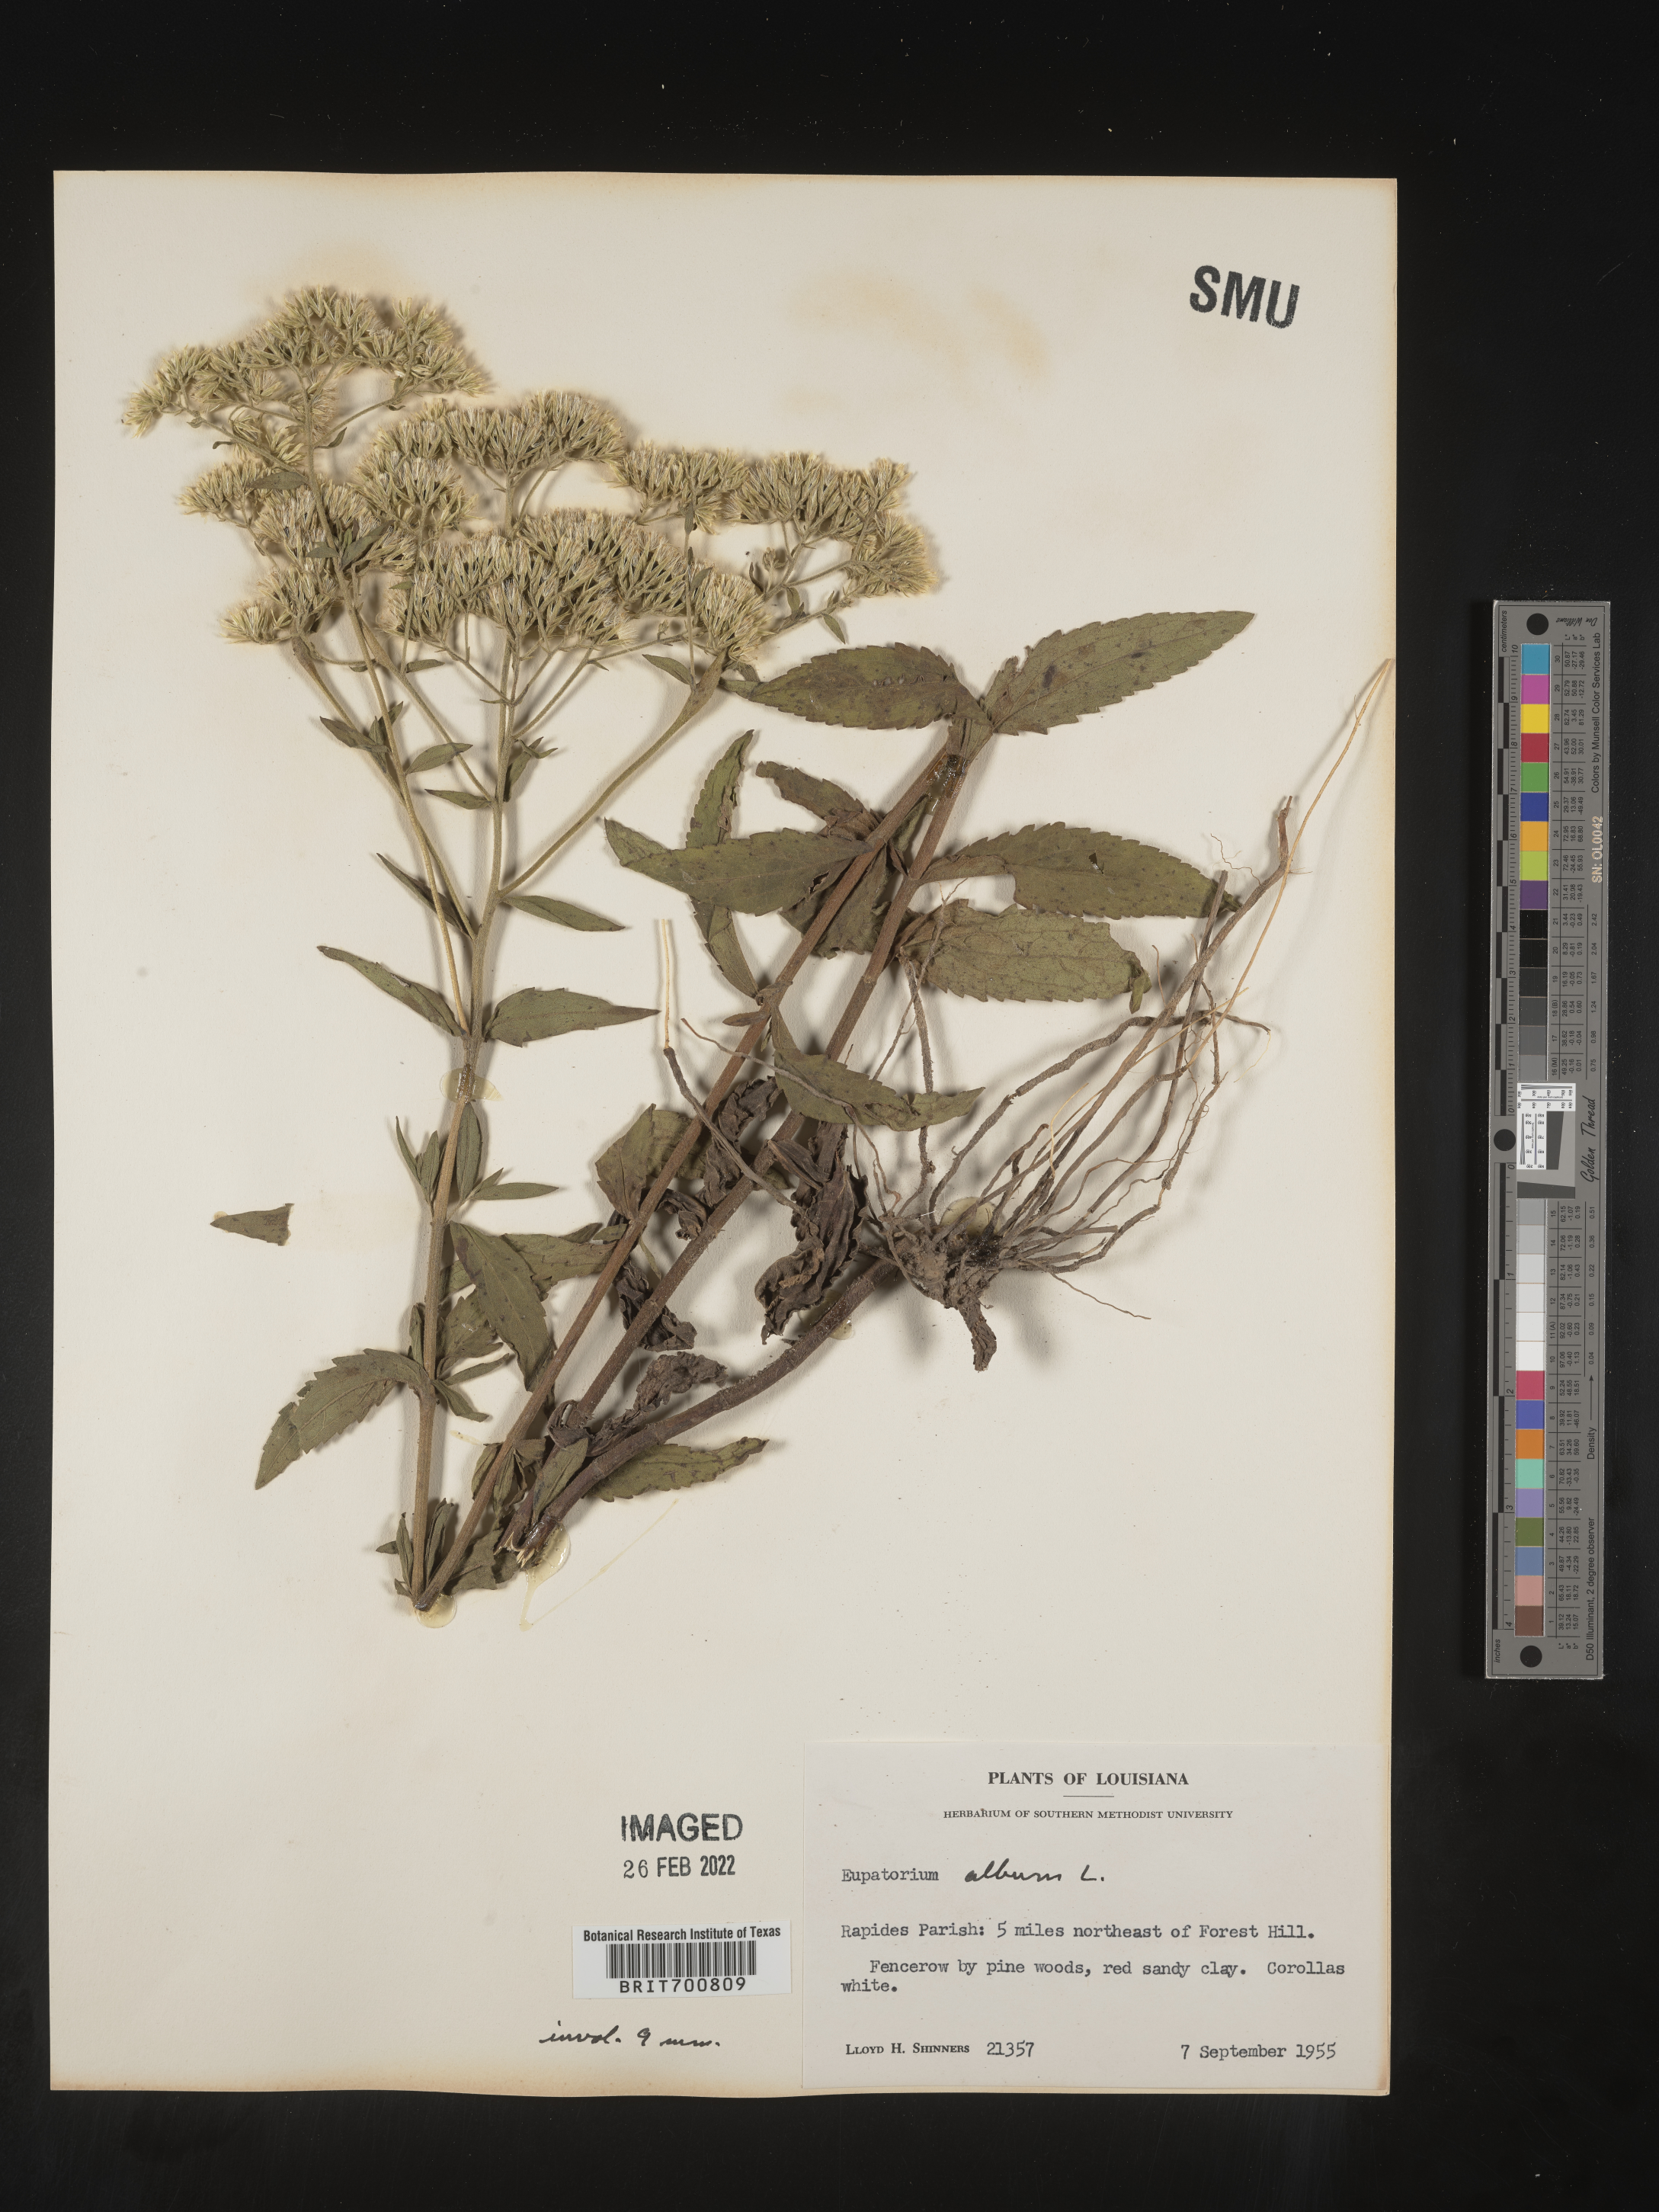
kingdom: Plantae
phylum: Tracheophyta
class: Magnoliopsida
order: Asterales
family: Asteraceae
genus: Eupatorium
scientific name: Eupatorium album
